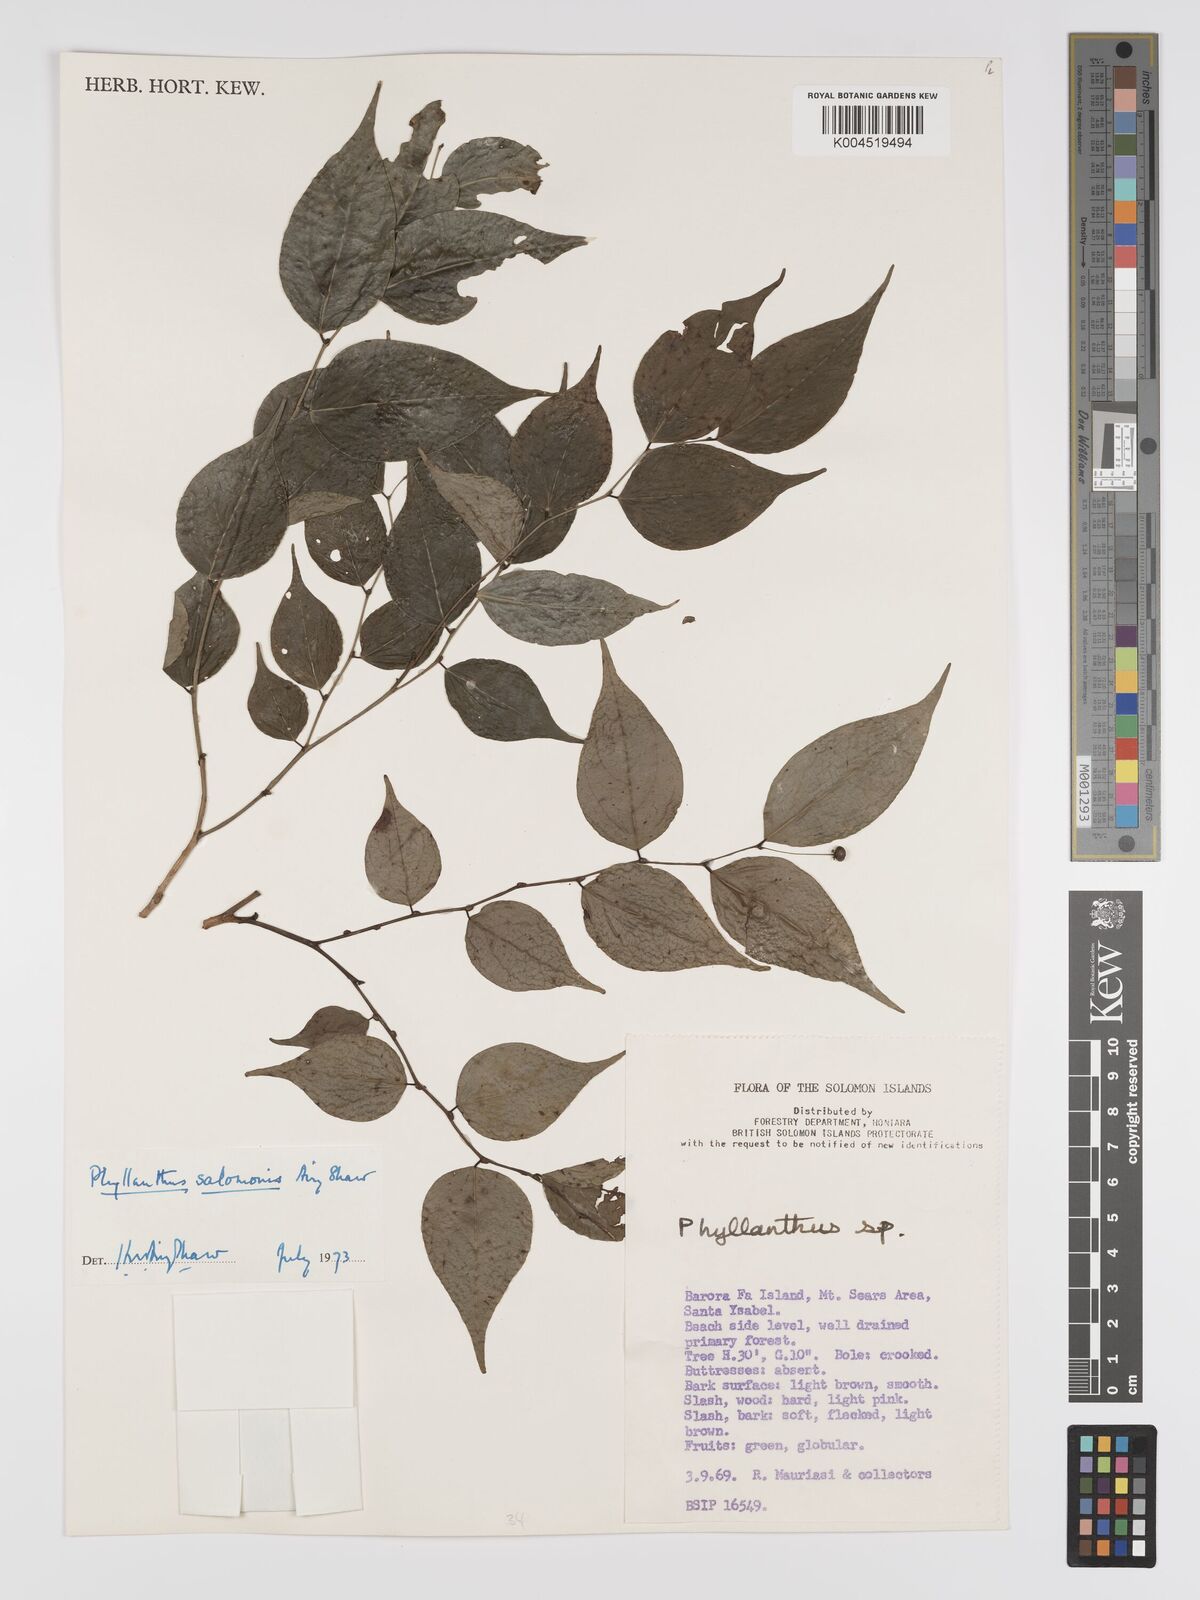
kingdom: Plantae
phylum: Tracheophyta
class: Magnoliopsida
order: Malpighiales
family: Phyllanthaceae
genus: Phyllanthus
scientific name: Phyllanthus salomonis
